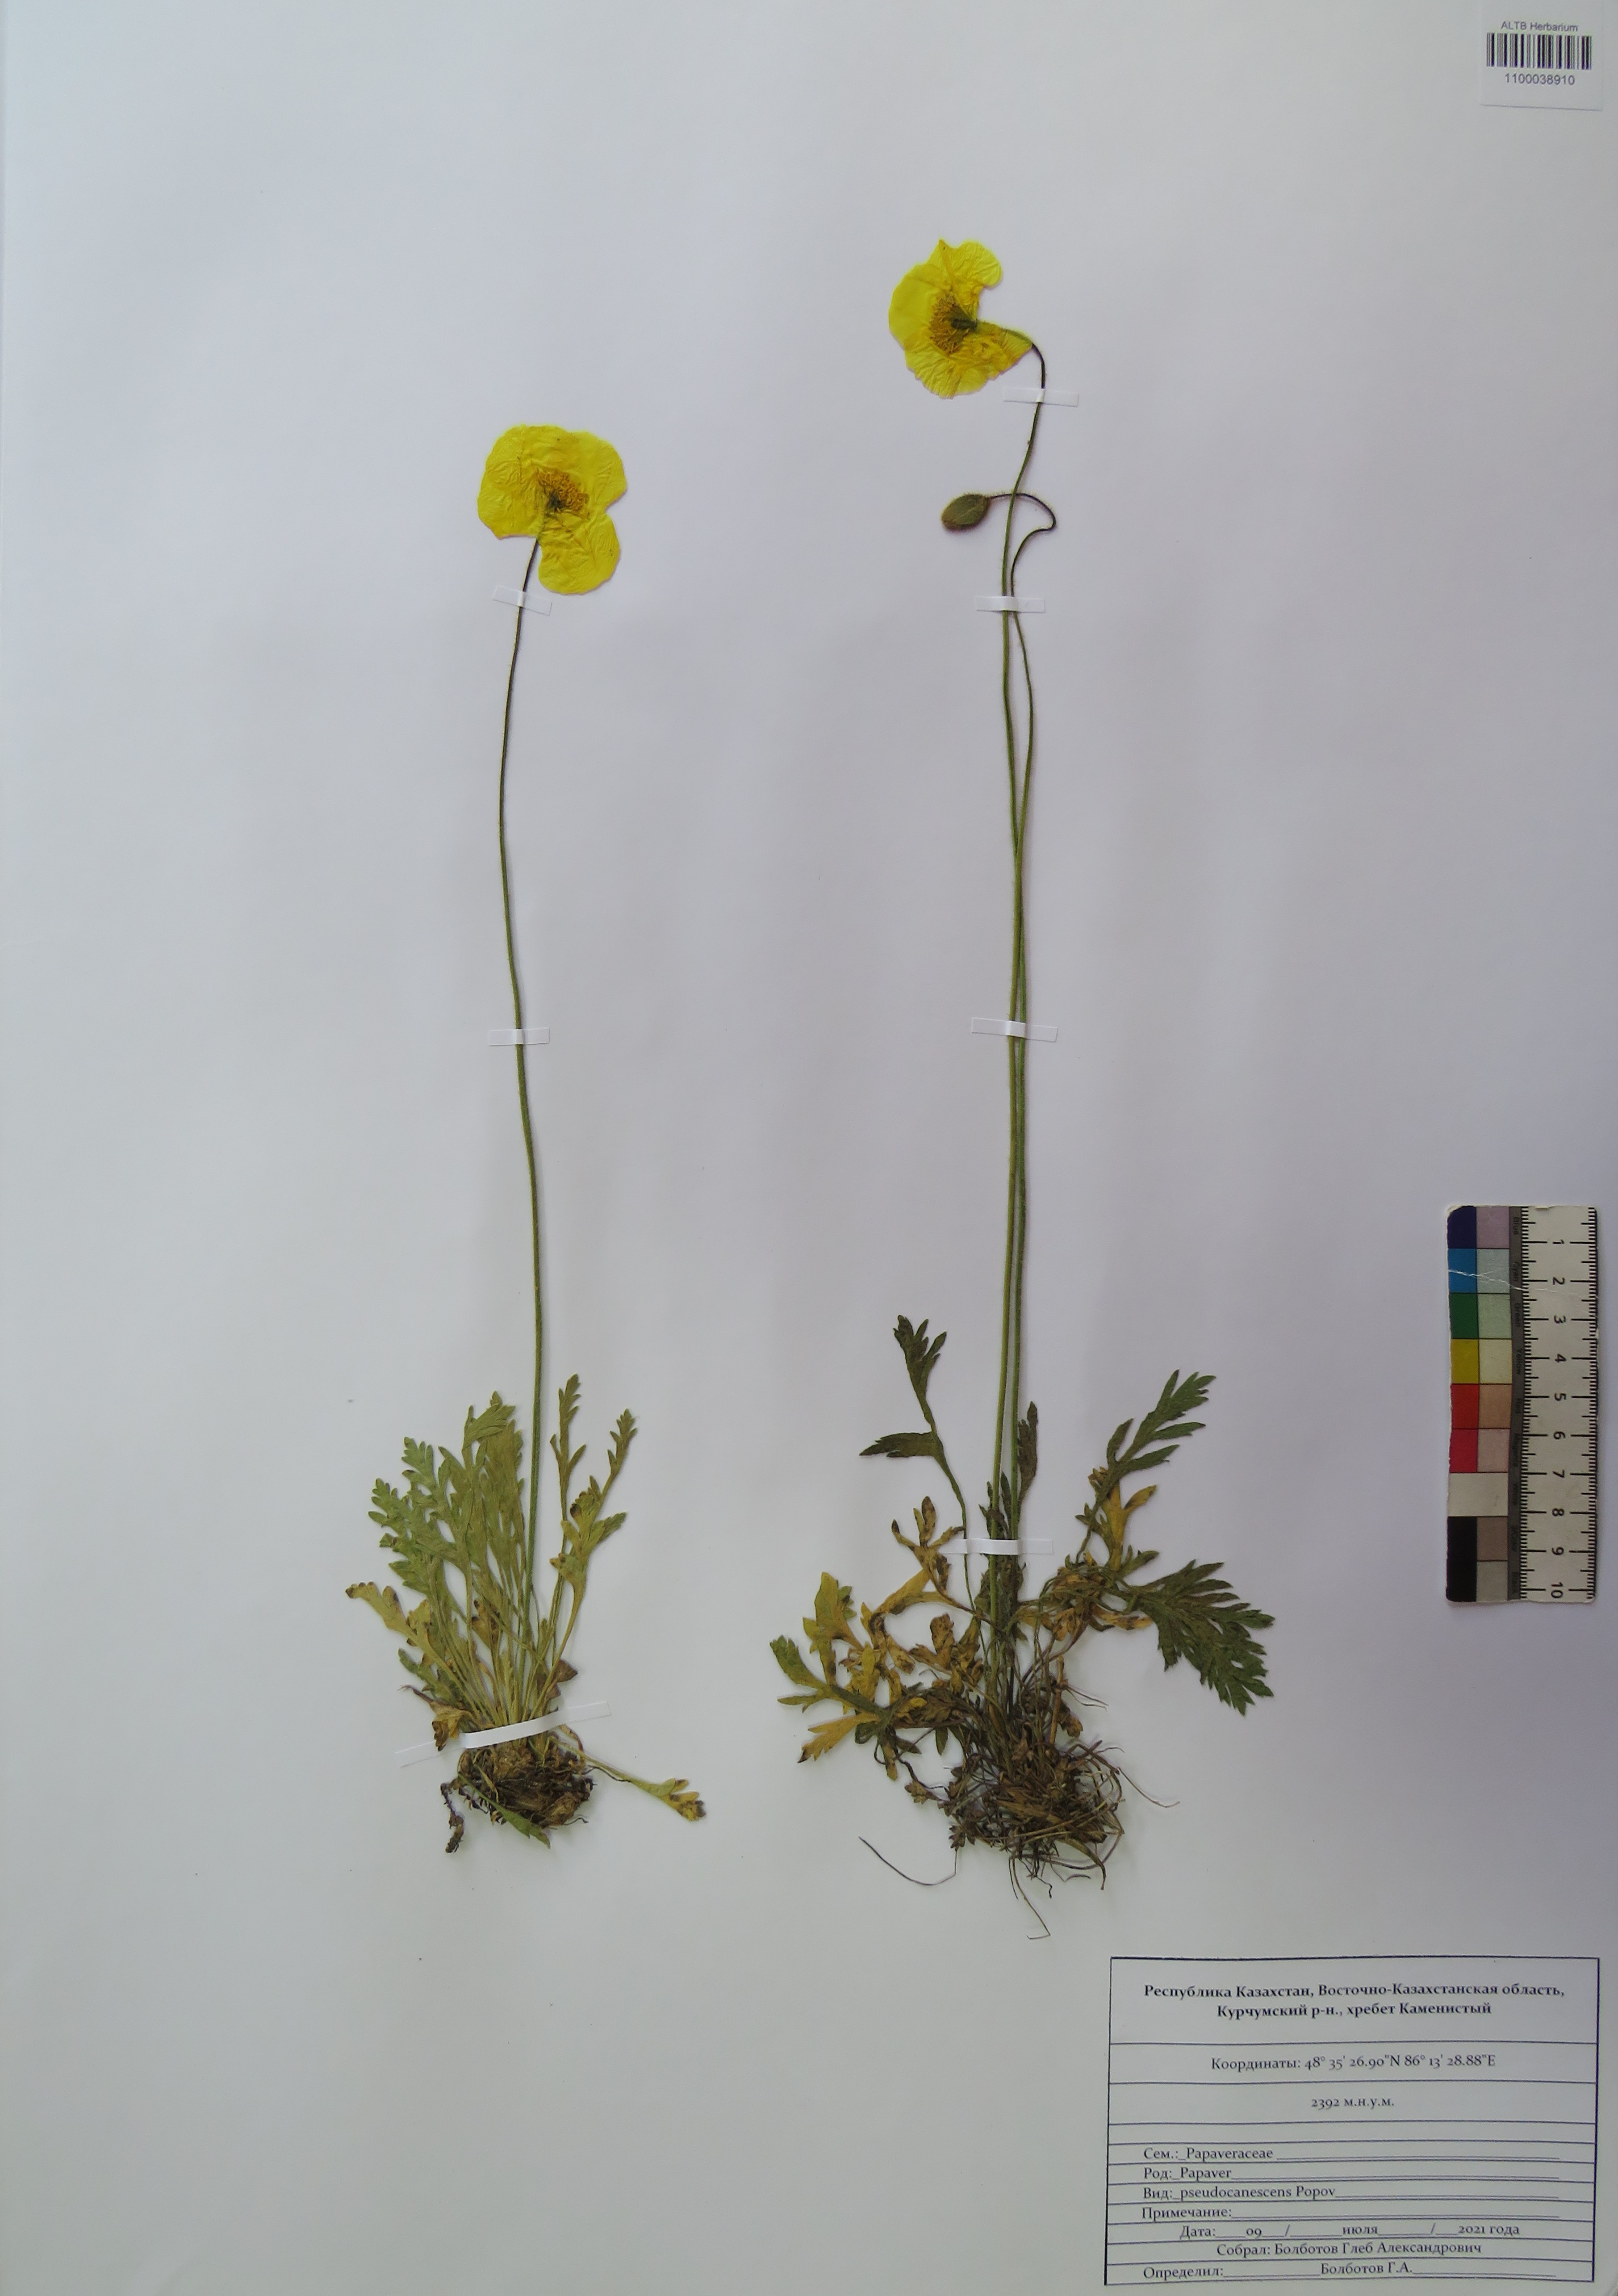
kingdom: Plantae
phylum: Tracheophyta
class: Magnoliopsida
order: Ranunculales
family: Papaveraceae
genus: Papaver
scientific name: Papaver canescens
